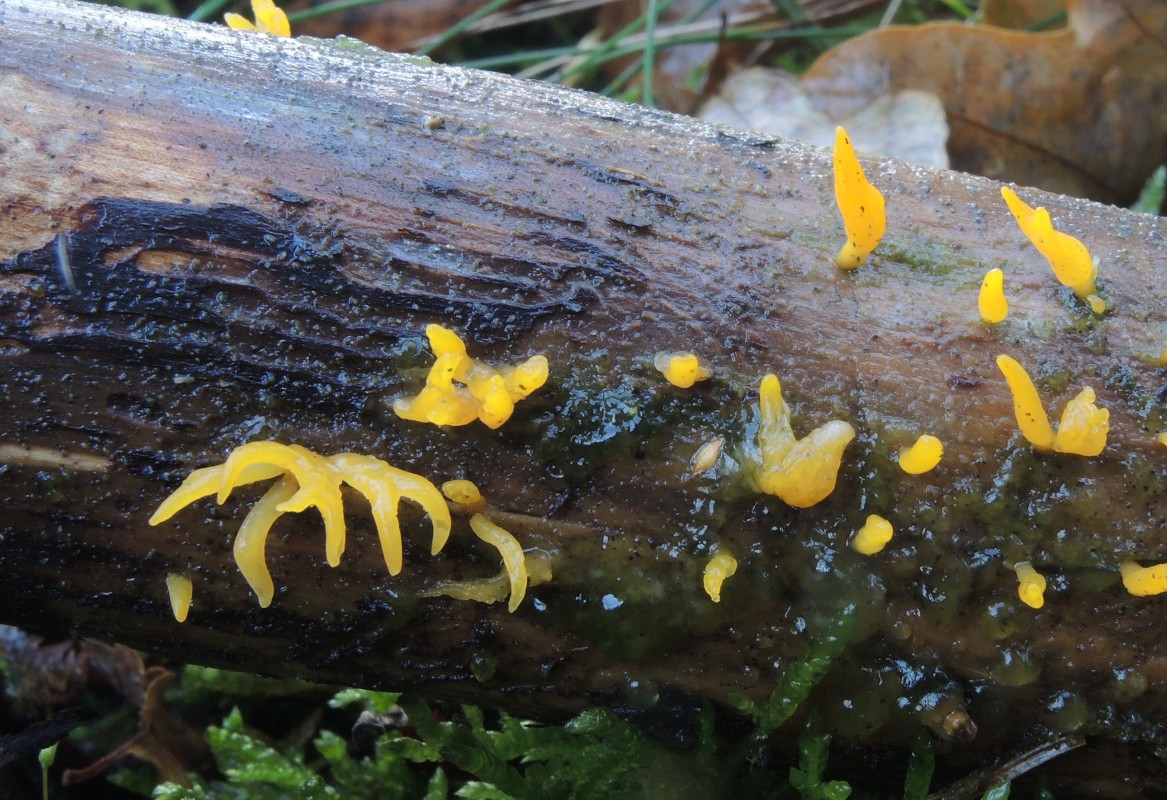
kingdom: Fungi
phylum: Basidiomycota
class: Dacrymycetes
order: Dacrymycetales
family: Dacrymycetaceae
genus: Calocera
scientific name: Calocera furcata
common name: fyrre-guldgaffel
